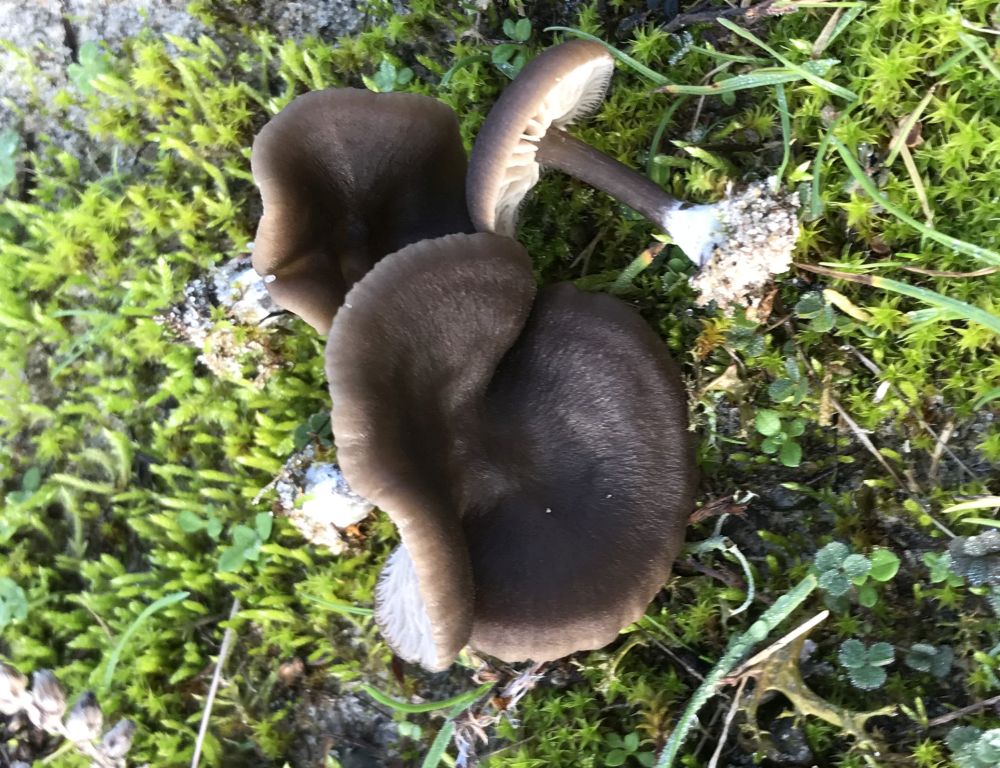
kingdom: Fungi
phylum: Basidiomycota
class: Agaricomycetes
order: Agaricales
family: Entolomataceae
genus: Entoloma
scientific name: Entoloma vindobonense
